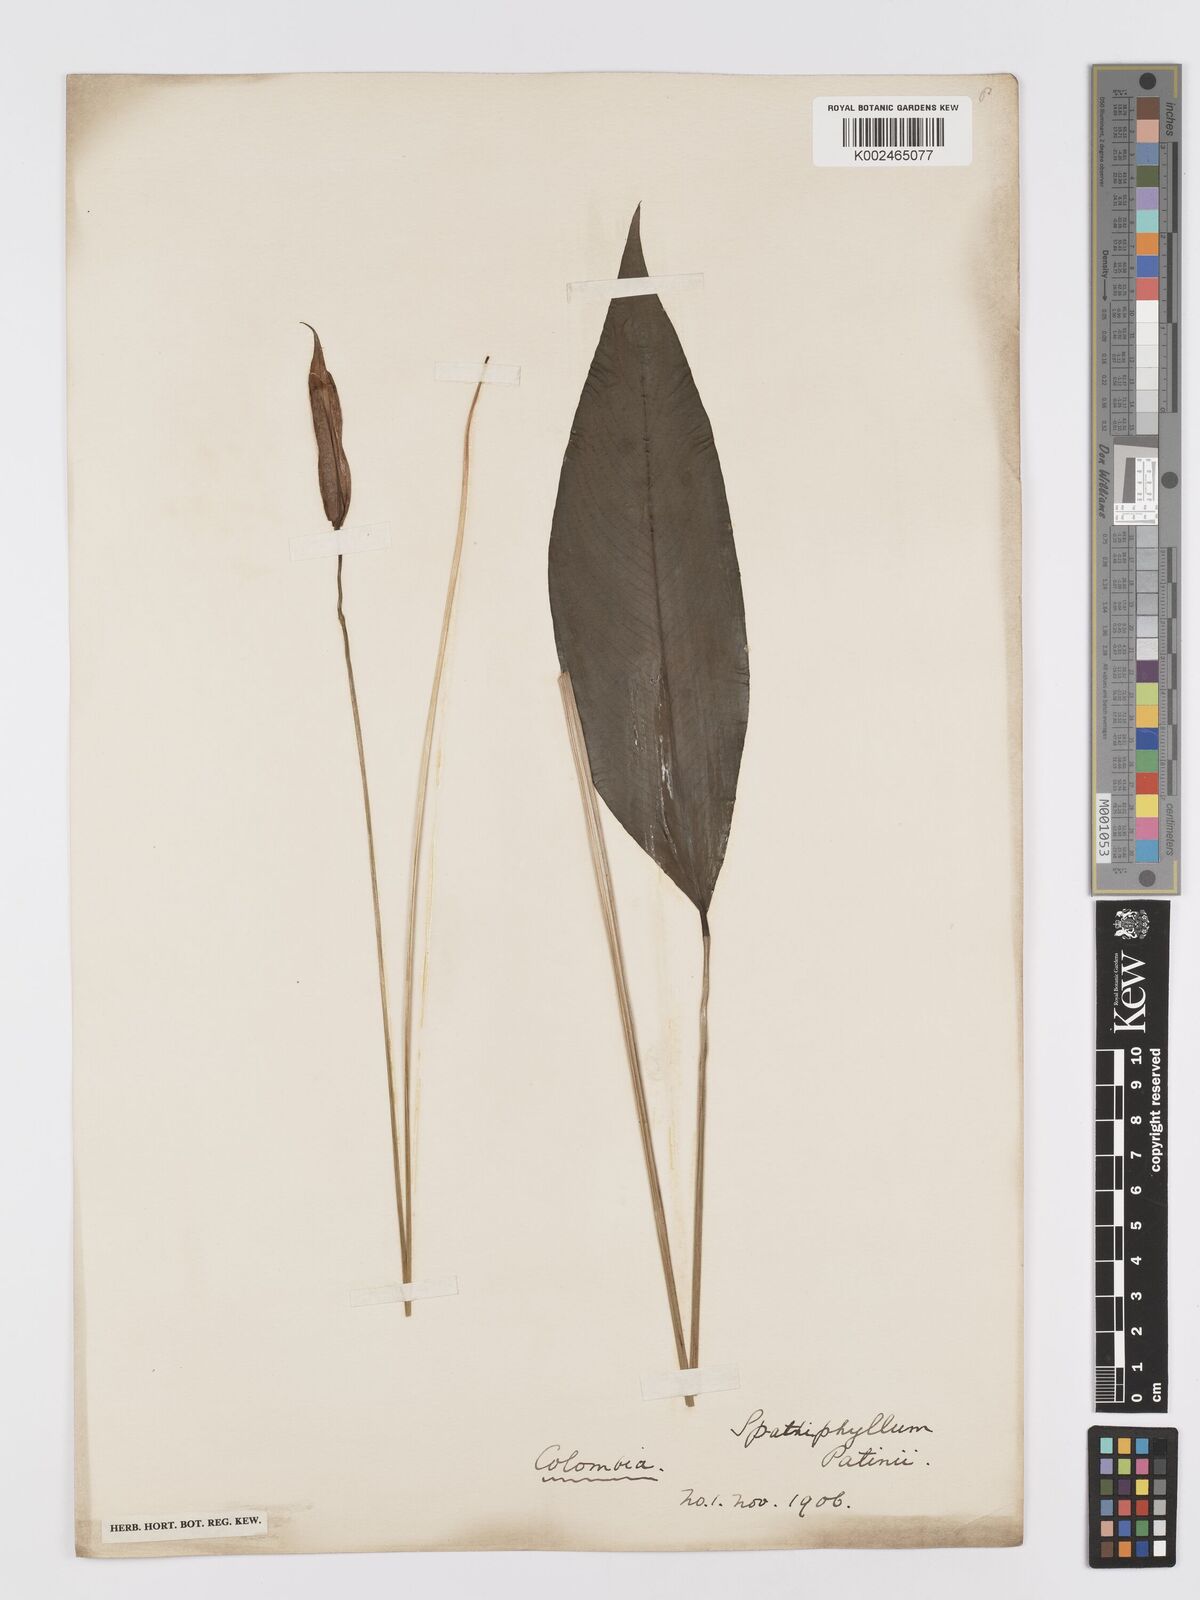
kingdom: Plantae
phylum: Tracheophyta
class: Liliopsida
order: Alismatales
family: Araceae
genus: Spathiphyllum
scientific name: Spathiphyllum patinii
